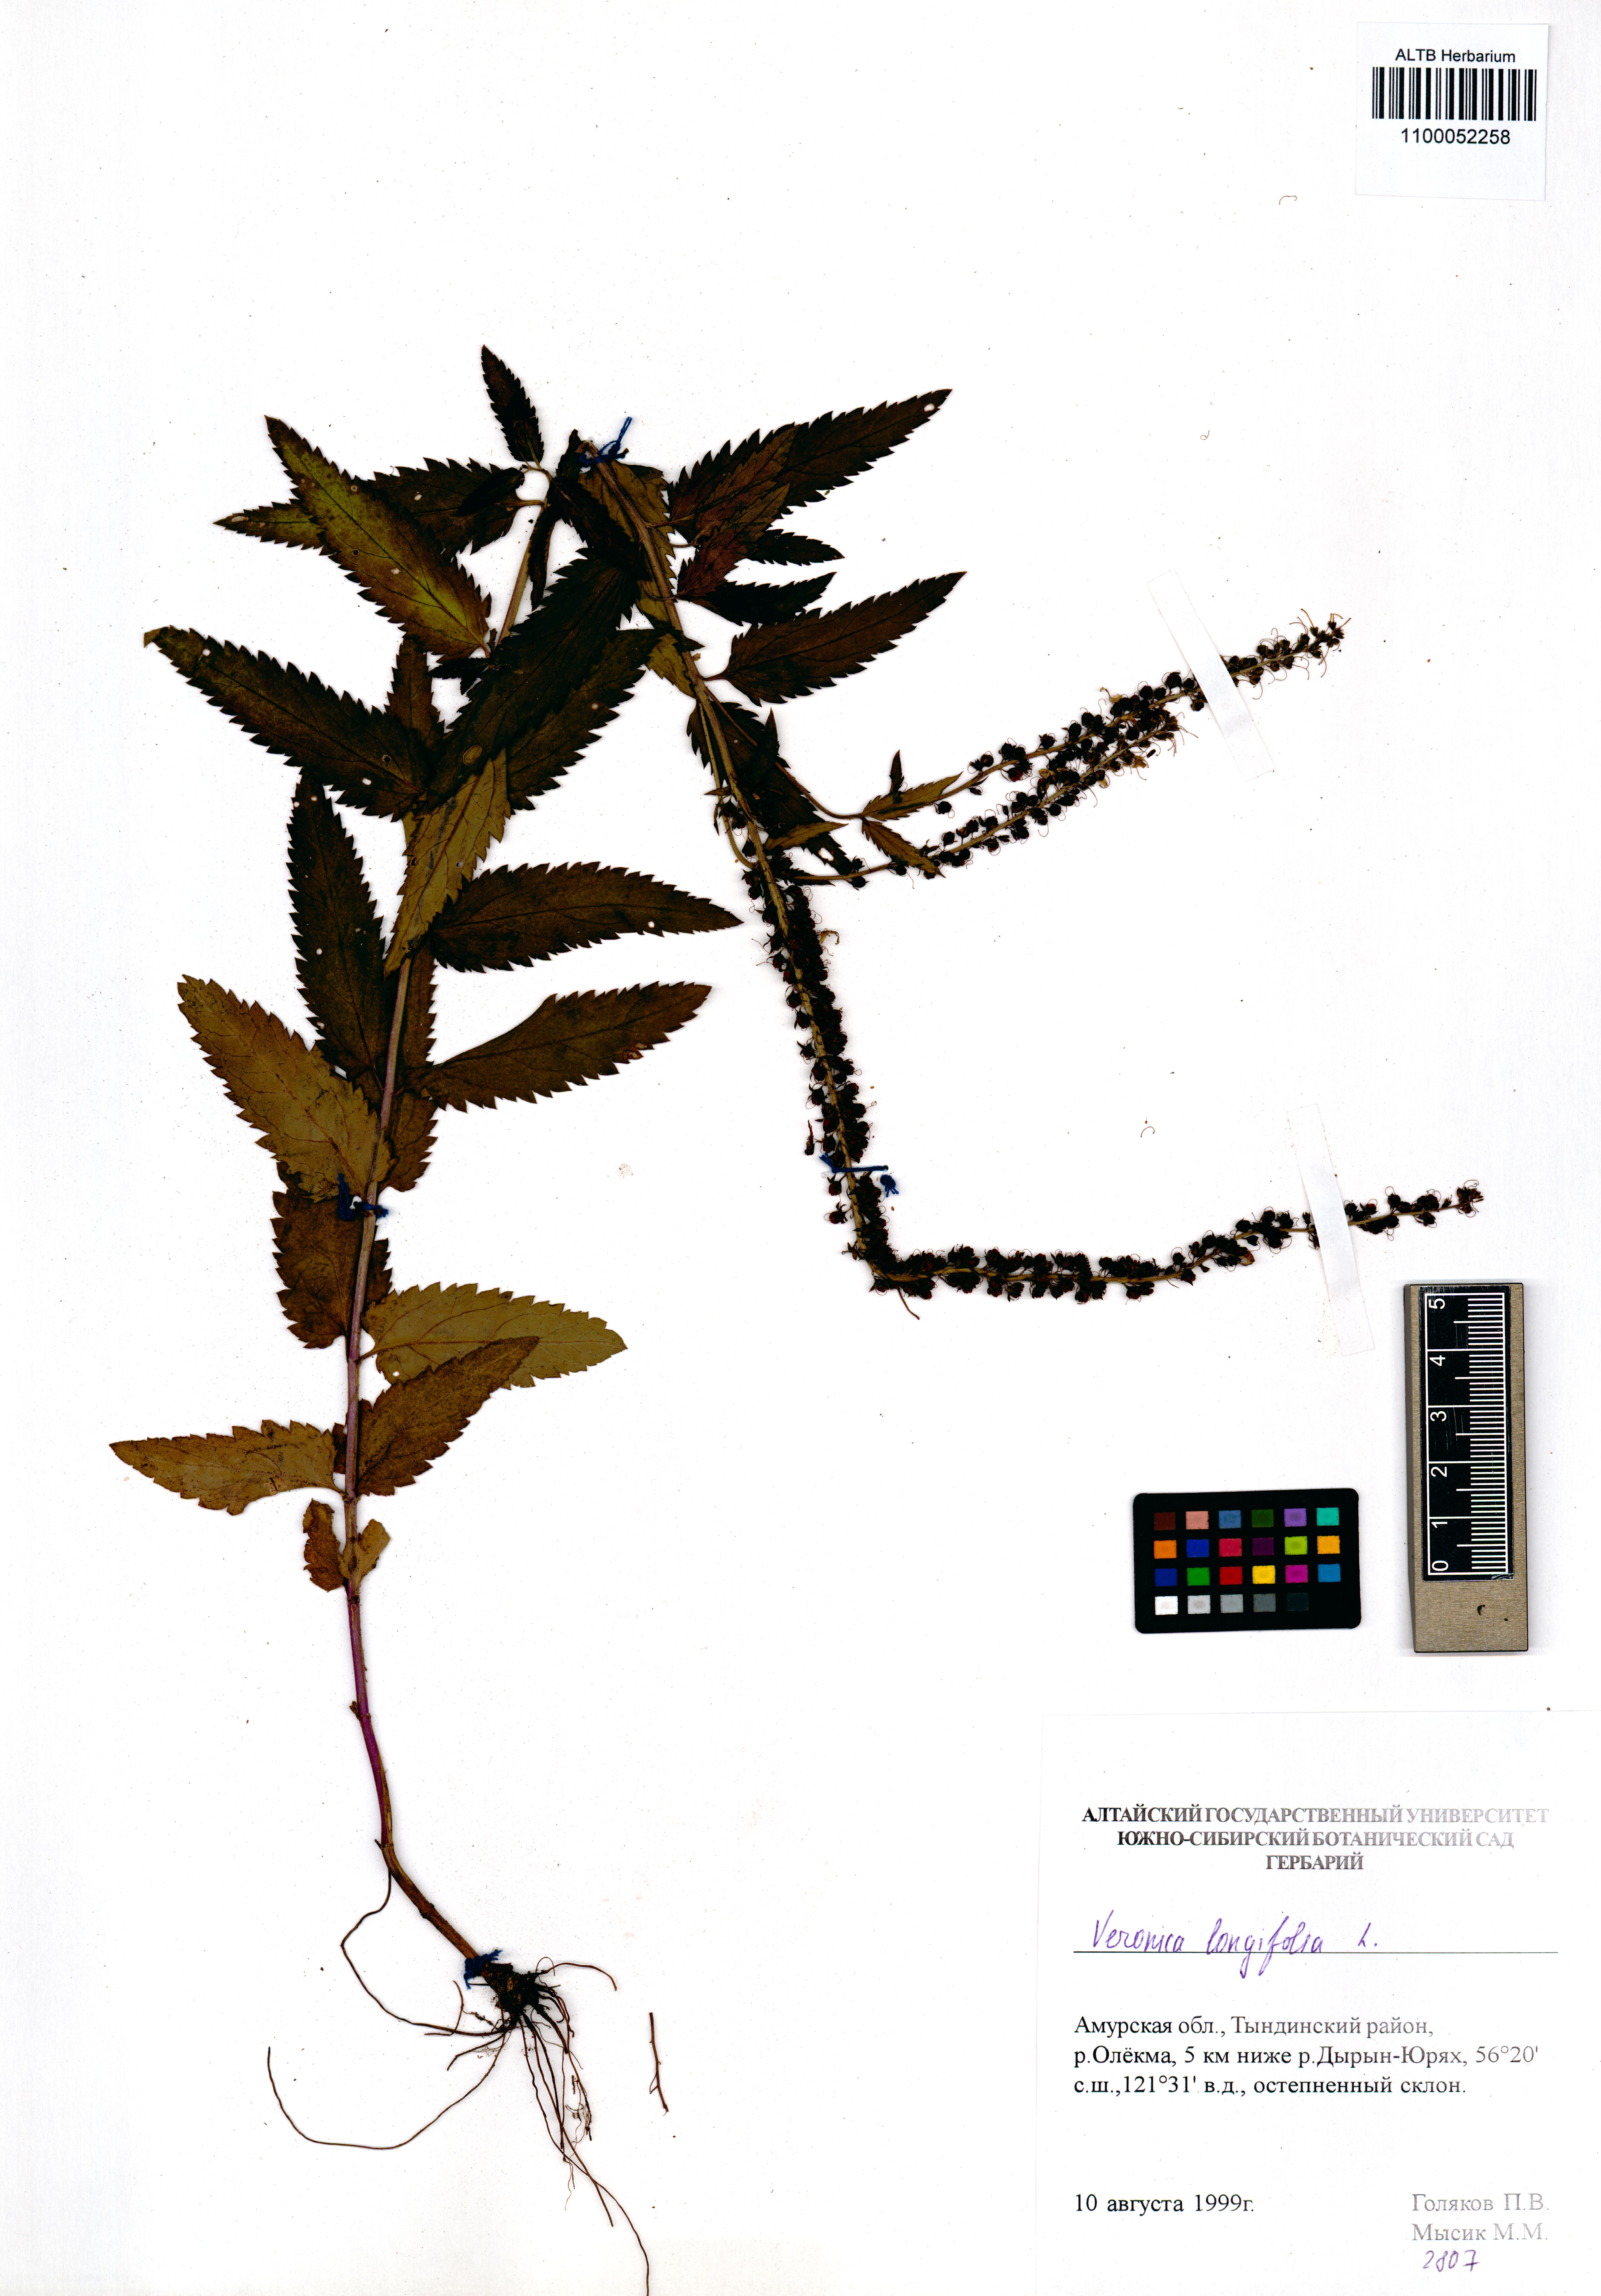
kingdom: Plantae
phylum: Tracheophyta
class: Magnoliopsida
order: Lamiales
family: Plantaginaceae
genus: Veronica
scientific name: Veronica longifolia
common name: Garden speedwell
